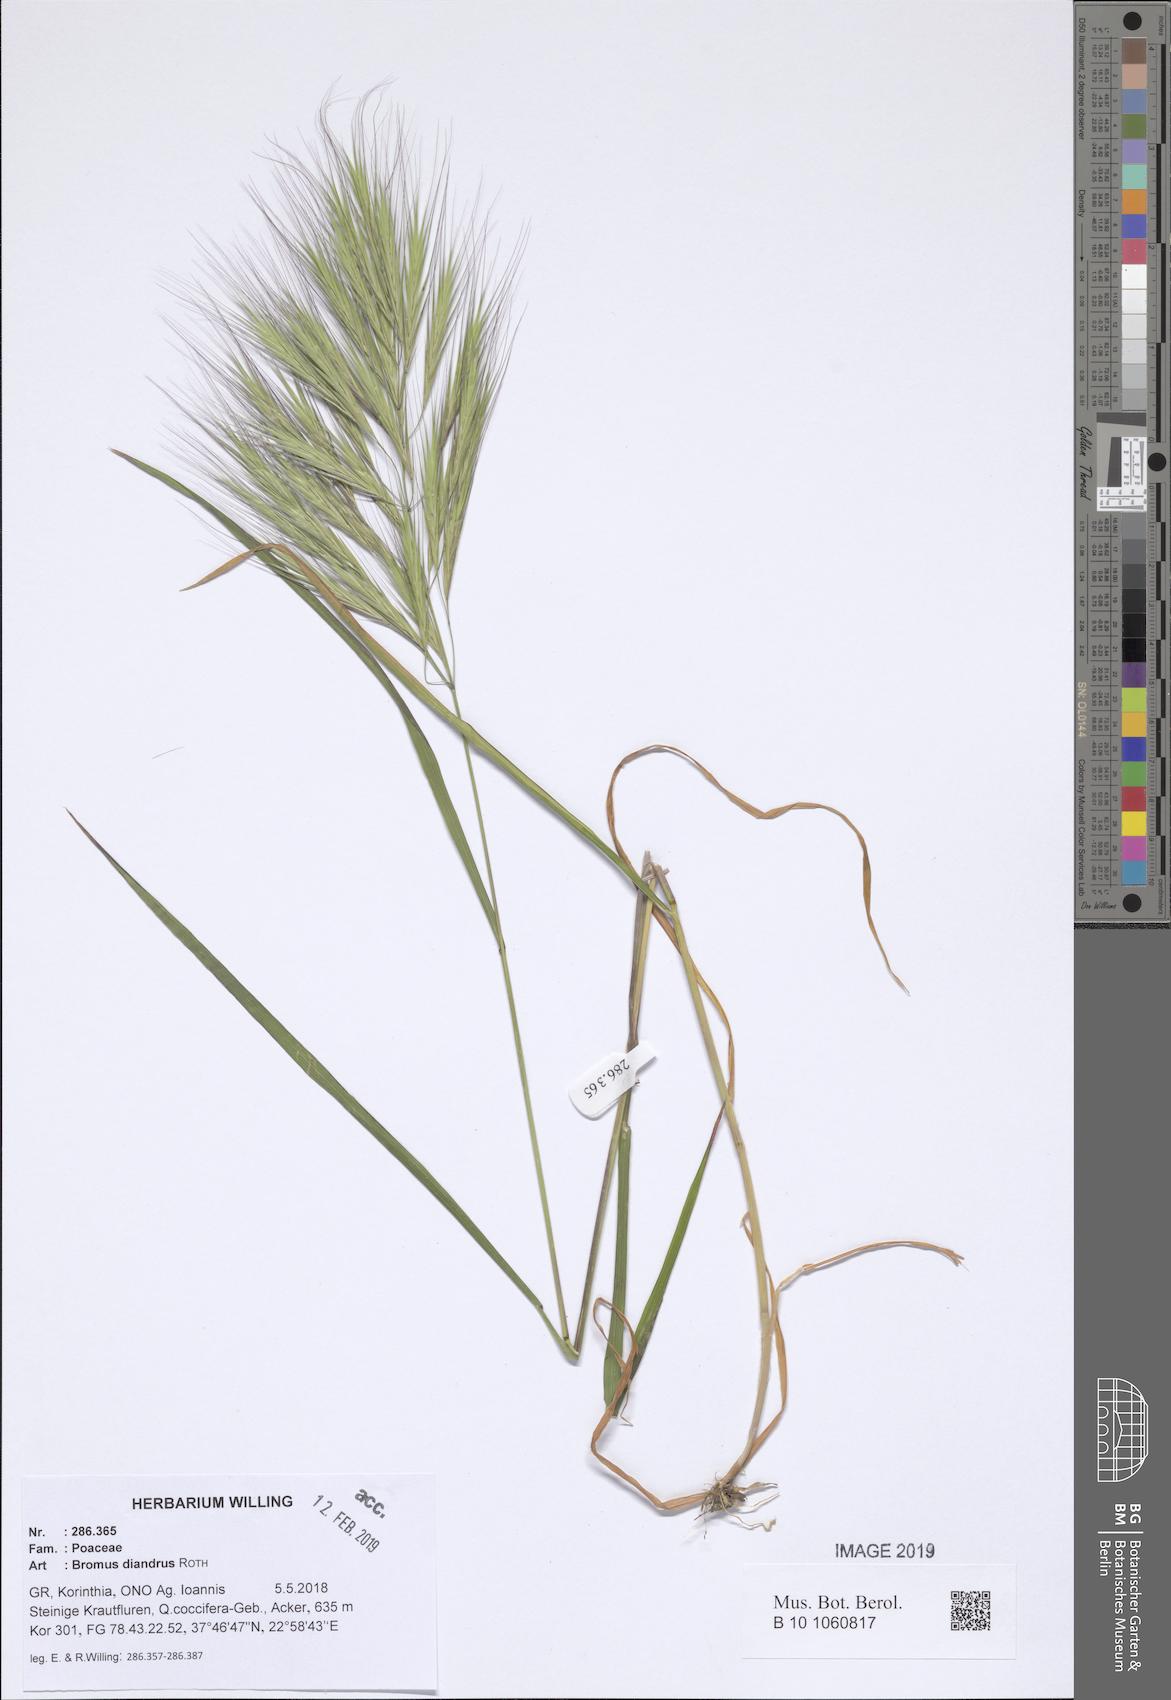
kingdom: Plantae
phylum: Tracheophyta
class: Liliopsida
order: Poales
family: Poaceae
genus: Bromus
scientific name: Bromus diandrus
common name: Ripgut brome
